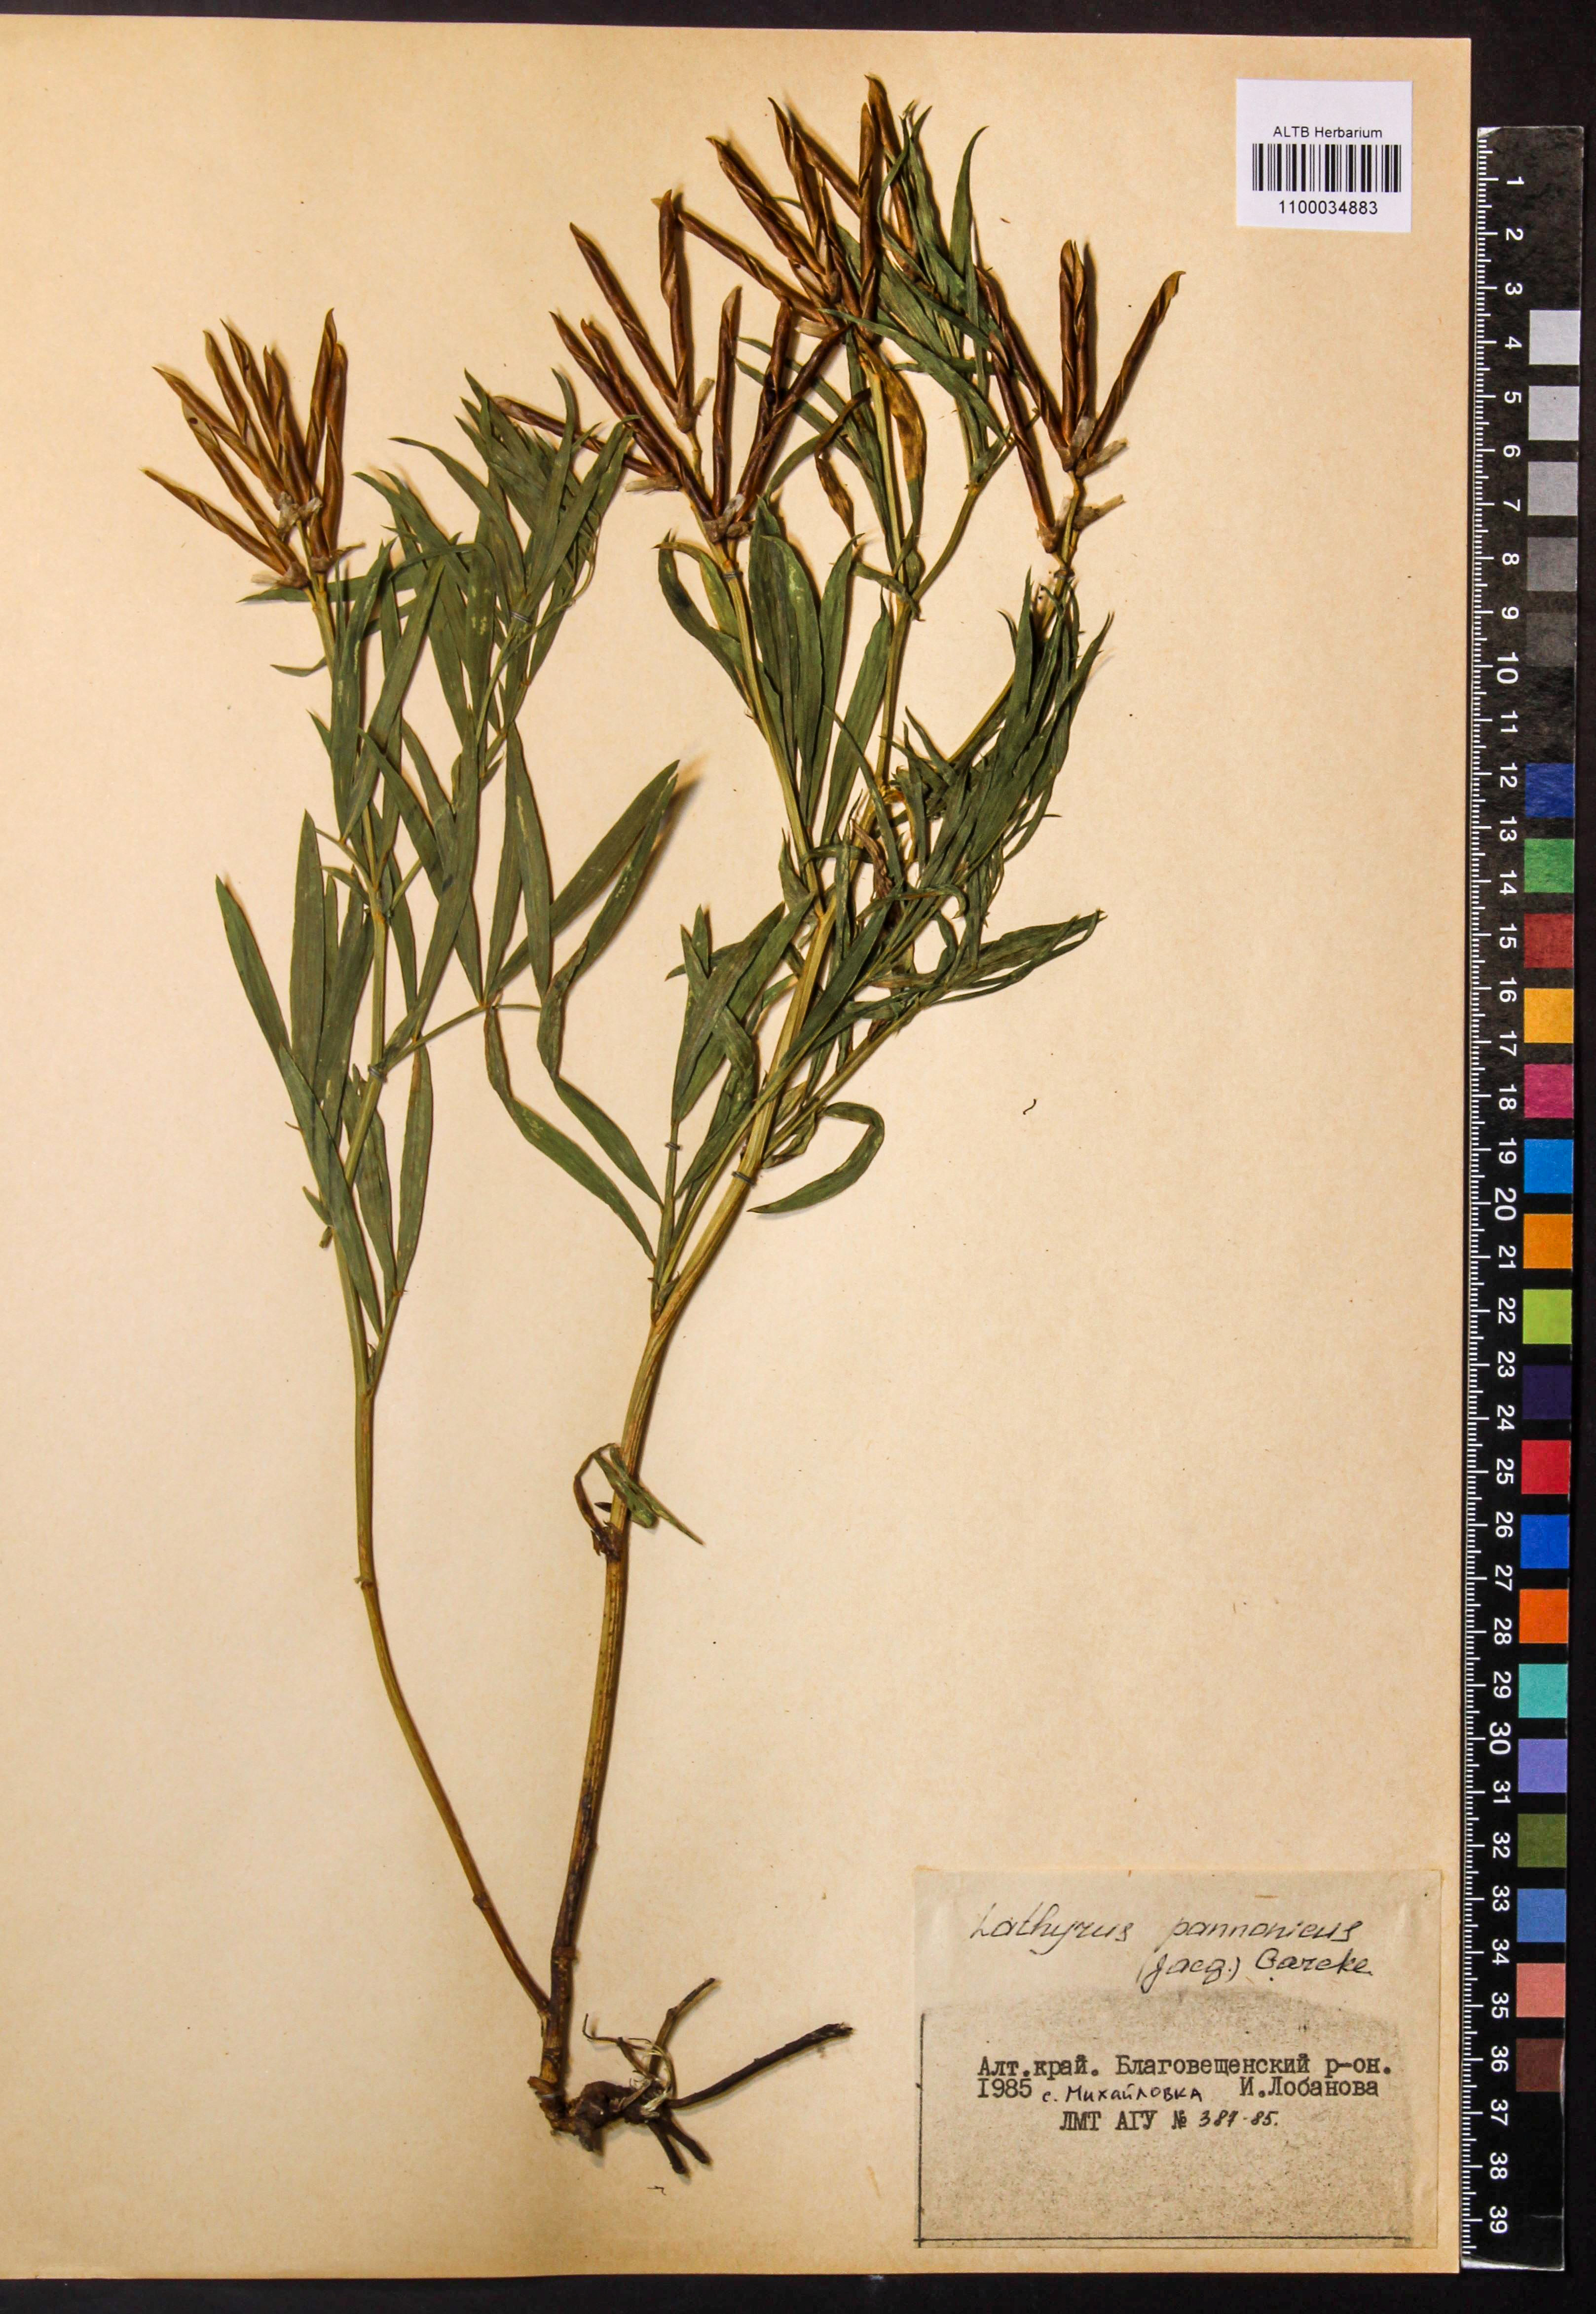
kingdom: Plantae
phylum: Tracheophyta
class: Magnoliopsida
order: Fabales
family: Fabaceae
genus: Lathyrus
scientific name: Lathyrus pannonicus
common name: Pea
